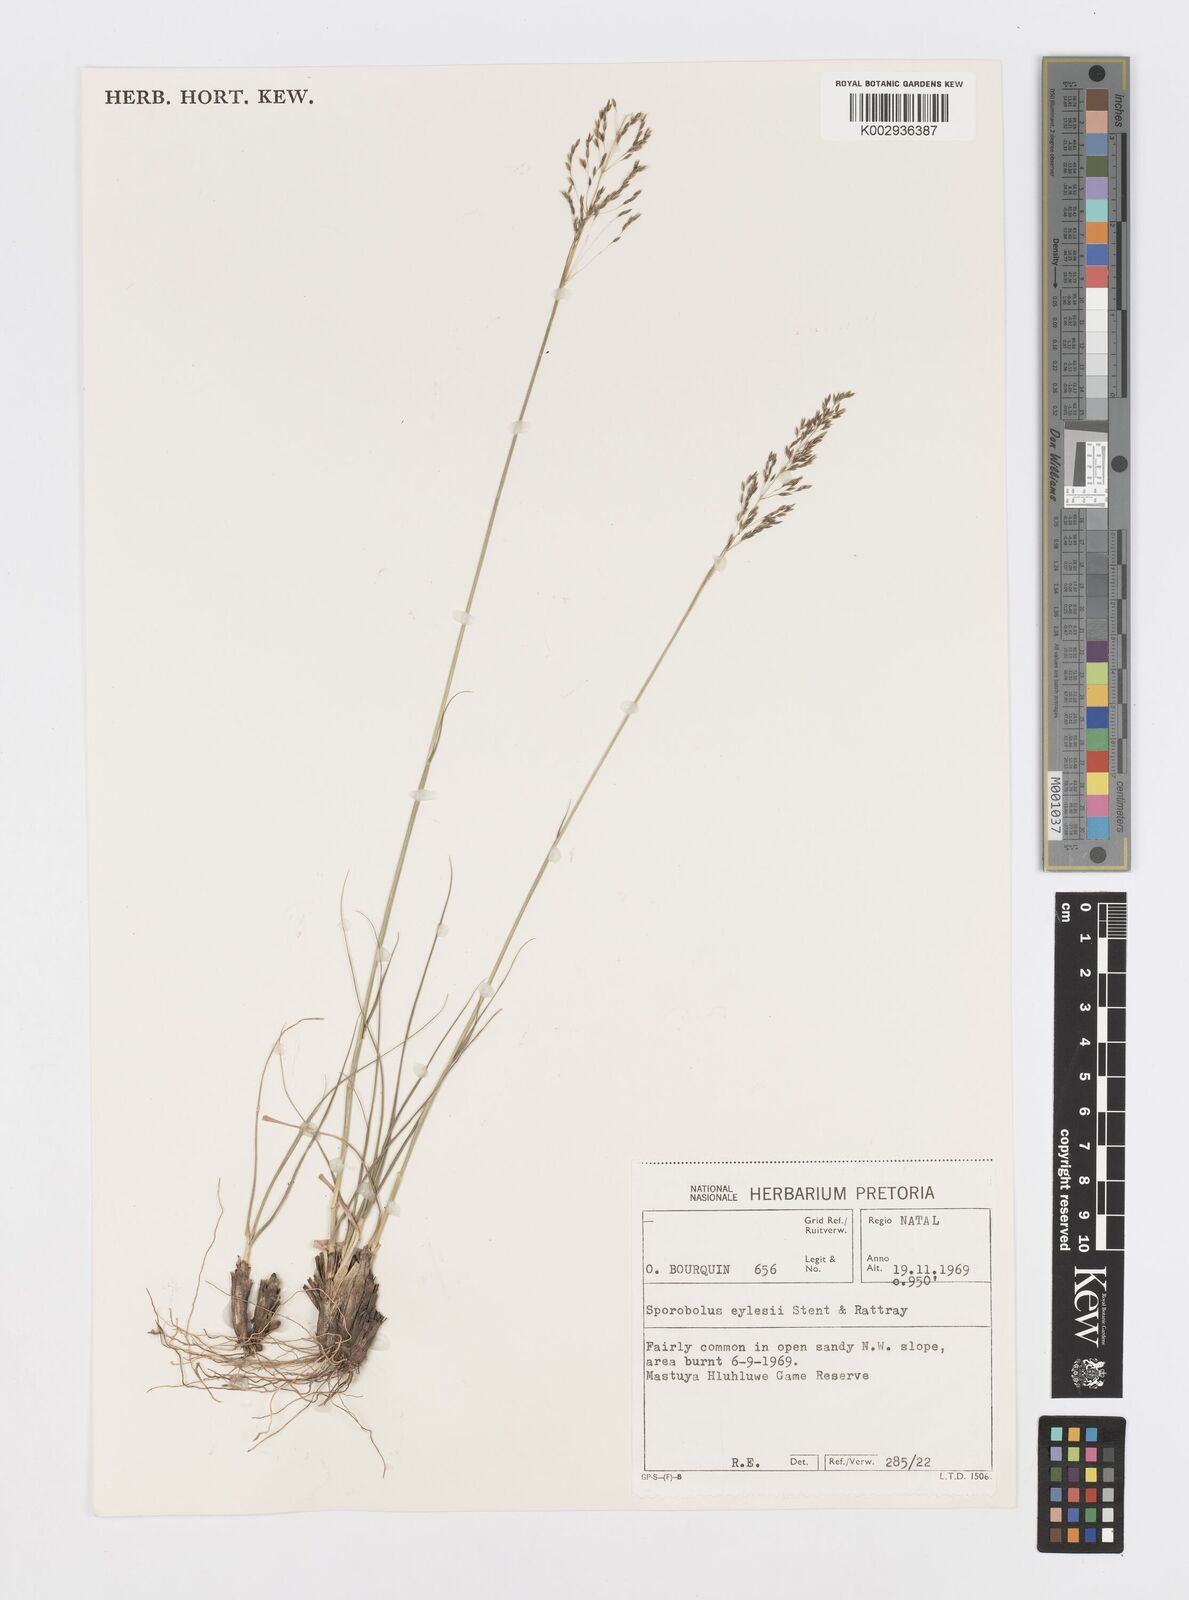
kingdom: Plantae
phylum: Tracheophyta
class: Liliopsida
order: Poales
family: Poaceae
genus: Sporobolus
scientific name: Sporobolus sanguineus
